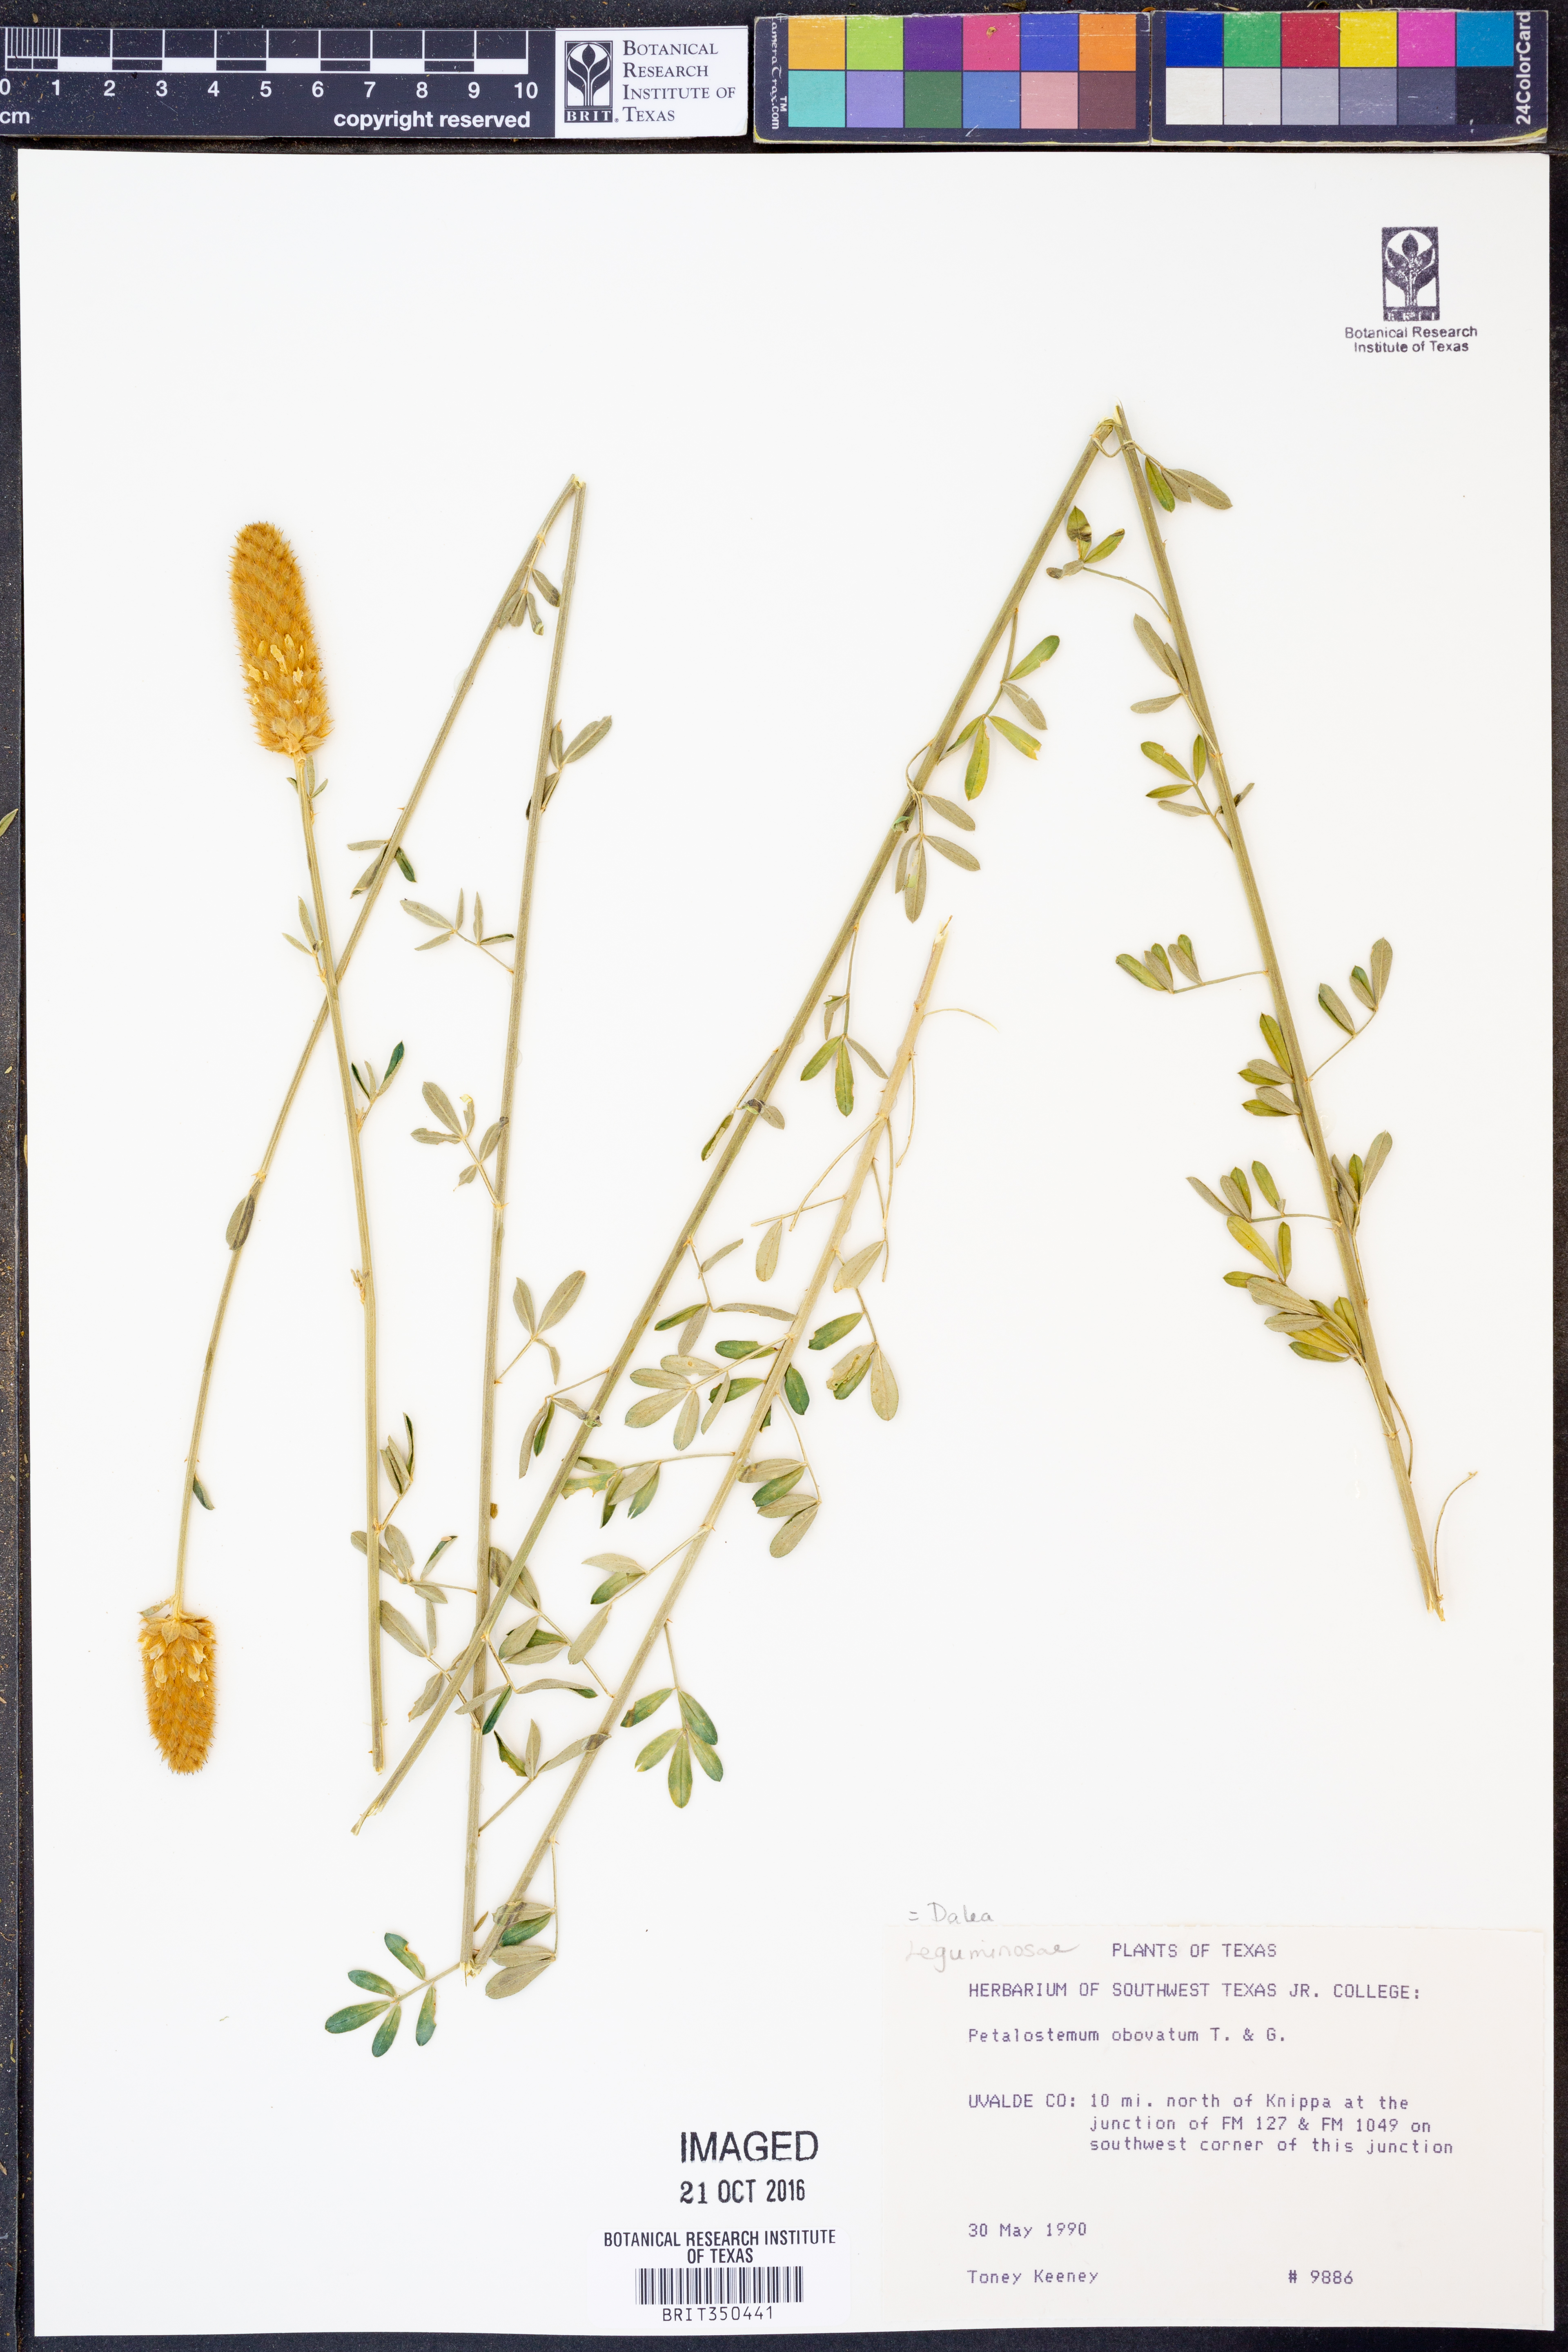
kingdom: Plantae
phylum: Tracheophyta
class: Magnoliopsida
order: Fabales
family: Fabaceae
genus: Dalea
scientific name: Dalea obovata
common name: Pussyfoot
